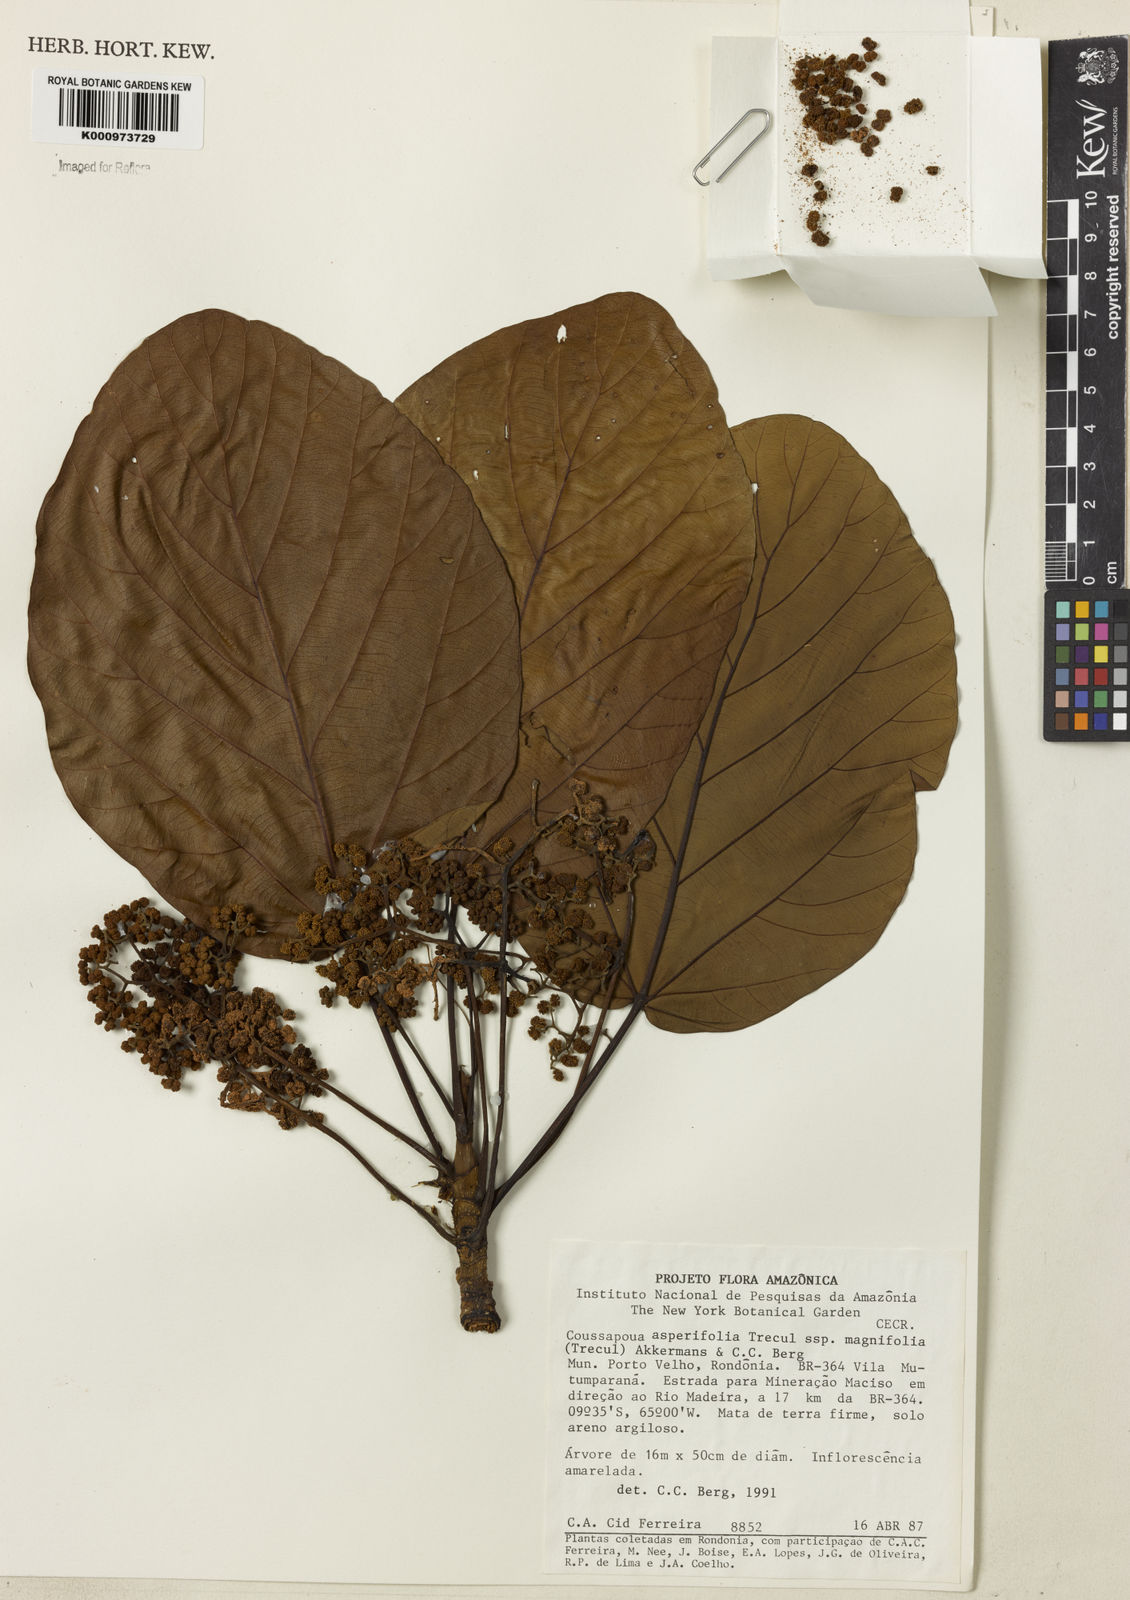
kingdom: Plantae
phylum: Tracheophyta
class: Magnoliopsida
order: Rosales
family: Urticaceae
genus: Coussapoa
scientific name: Coussapoa
